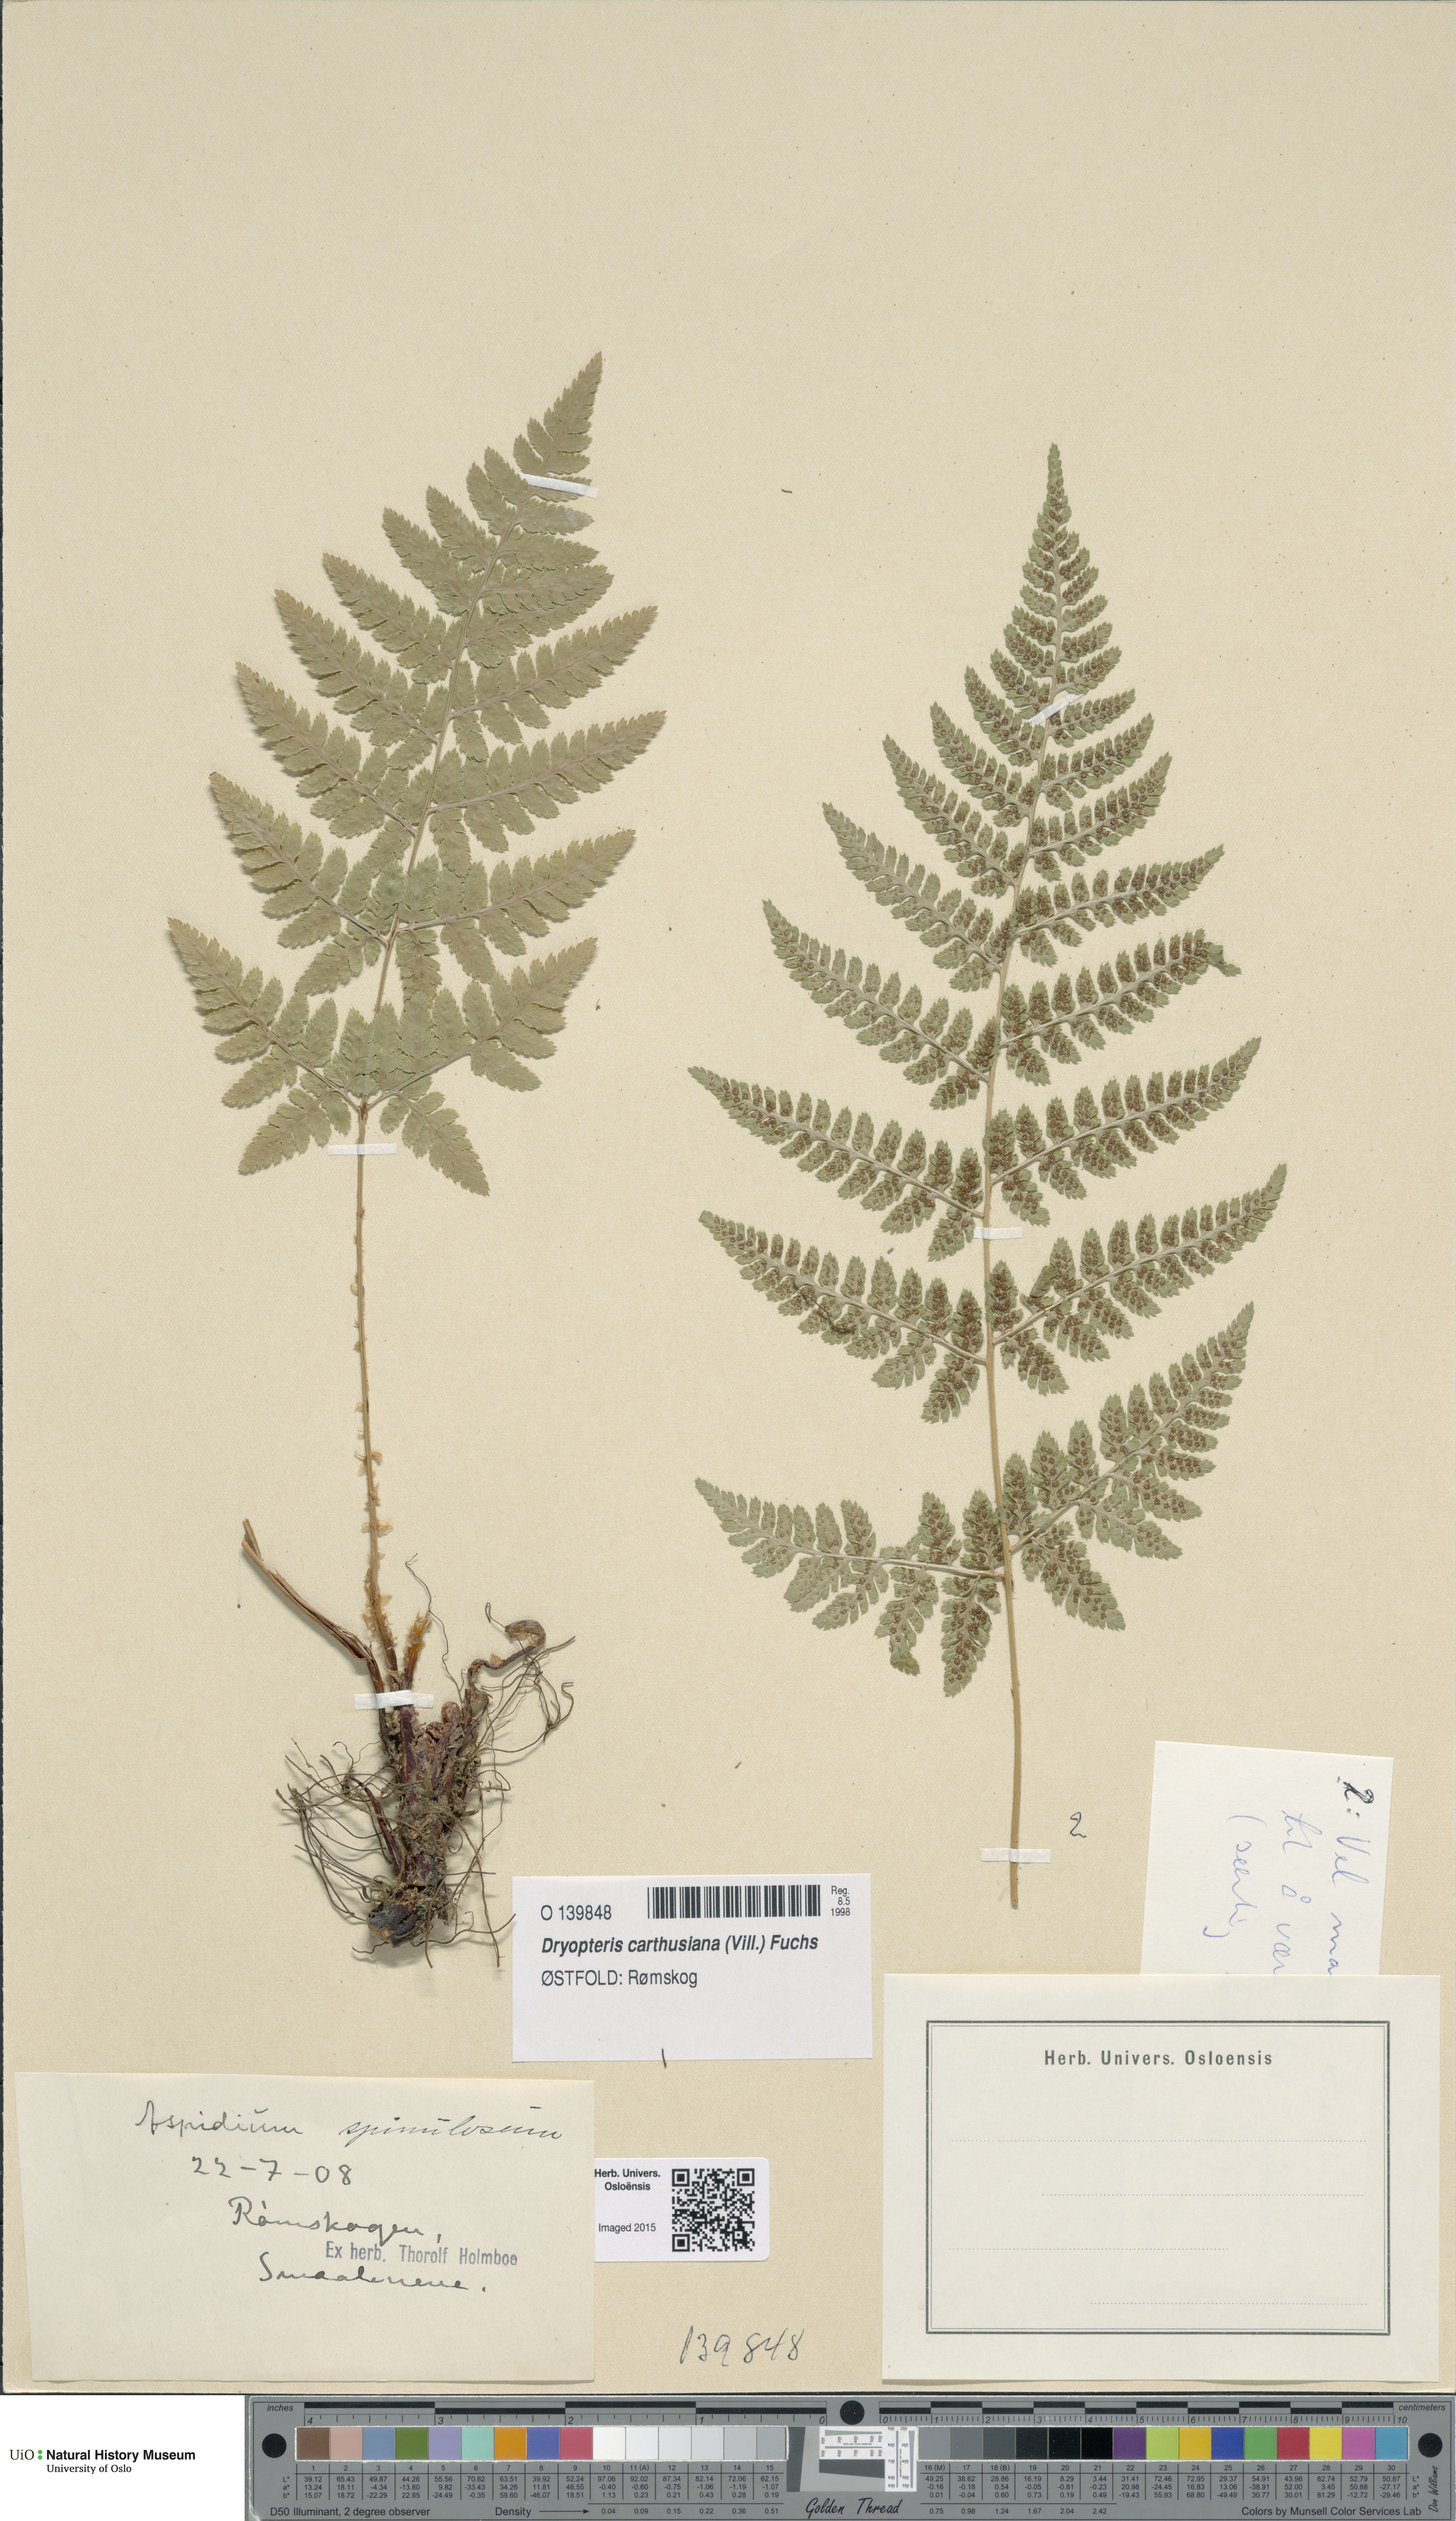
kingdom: Plantae
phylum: Tracheophyta
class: Polypodiopsida
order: Polypodiales
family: Dryopteridaceae
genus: Dryopteris
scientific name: Dryopteris carthusiana
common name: Narrow buckler-fern
